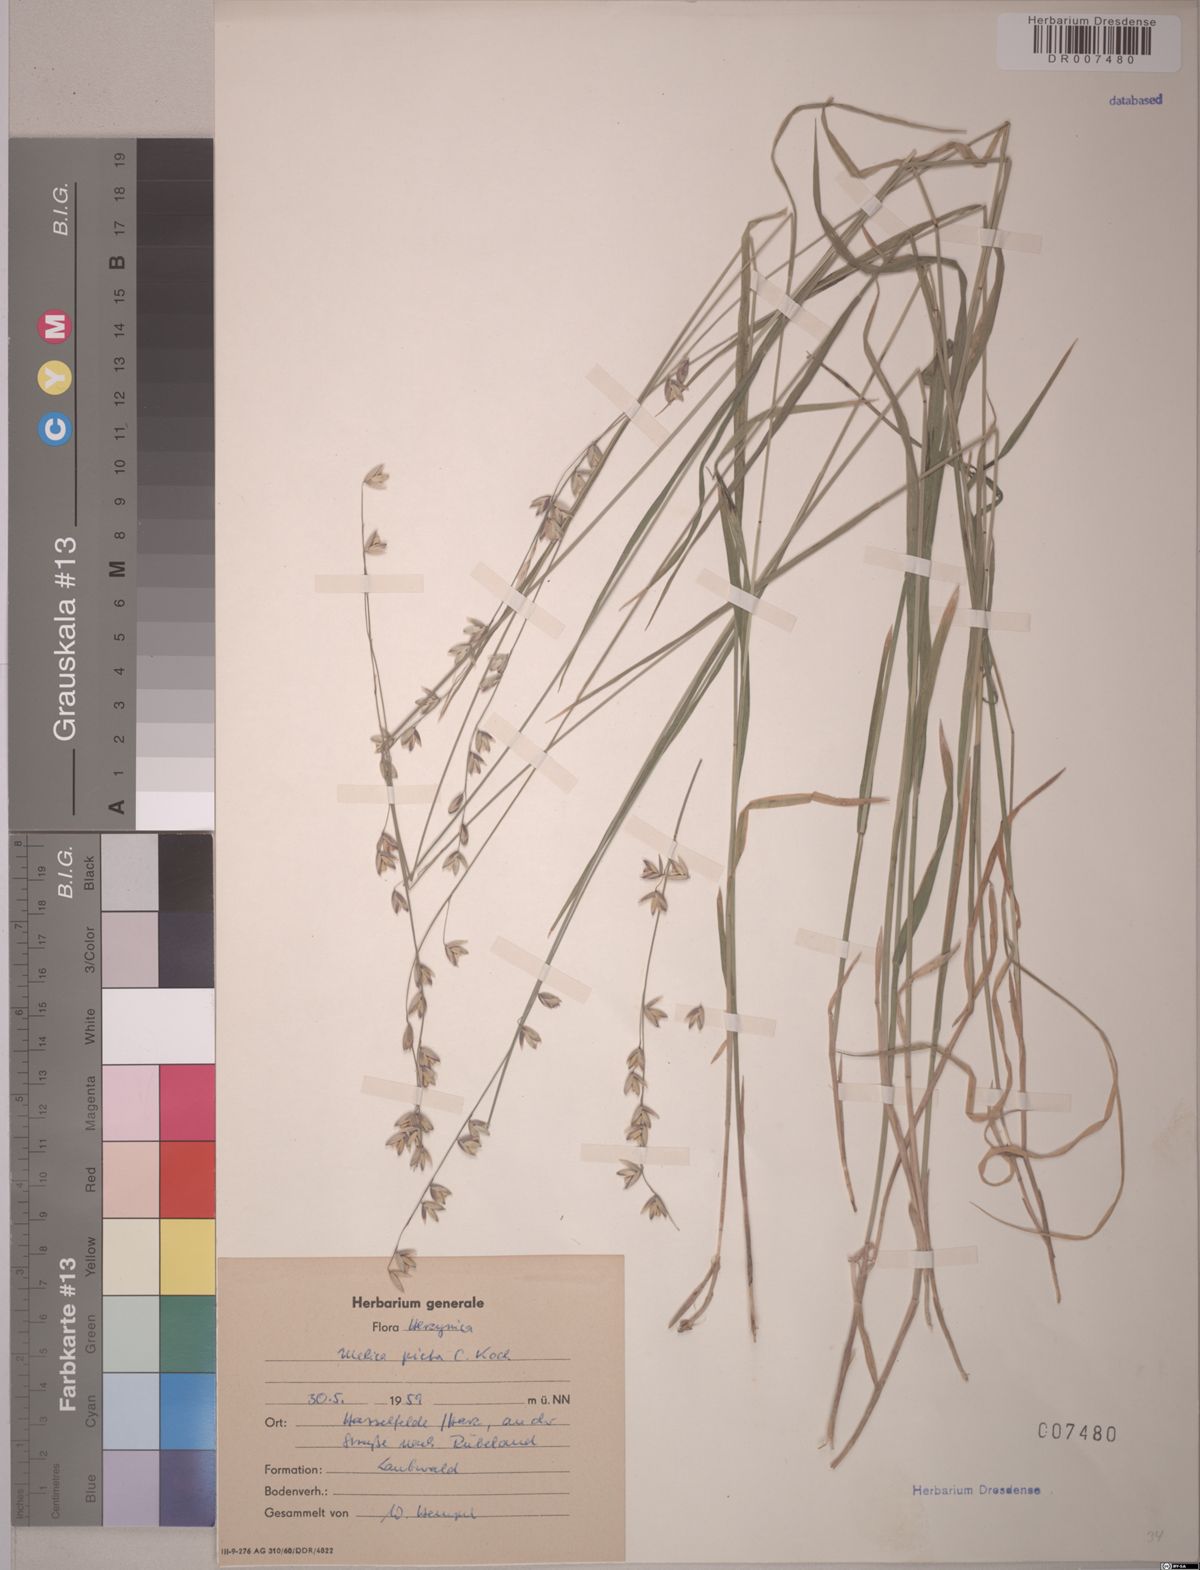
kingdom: Plantae
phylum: Tracheophyta
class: Liliopsida
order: Poales
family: Poaceae
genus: Melica
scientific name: Melica picta
